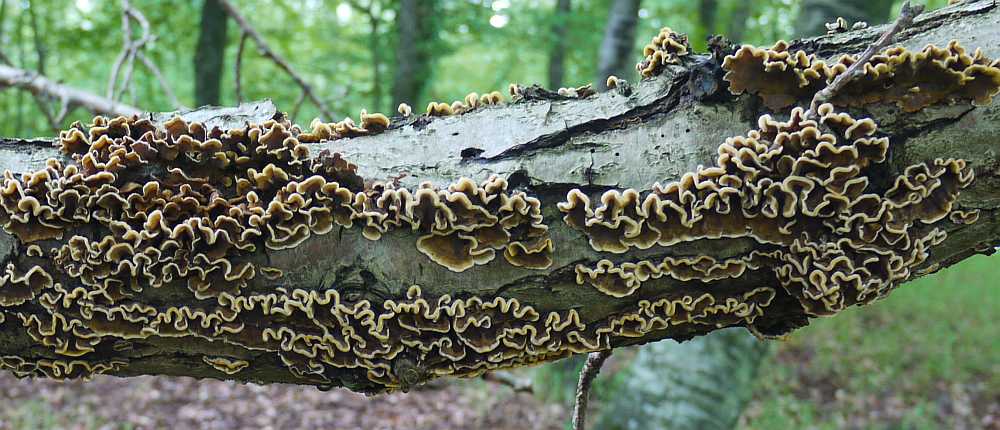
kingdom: Fungi
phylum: Basidiomycota
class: Agaricomycetes
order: Russulales
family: Stereaceae
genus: Stereum
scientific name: Stereum hirsutum
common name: håret lædersvamp
